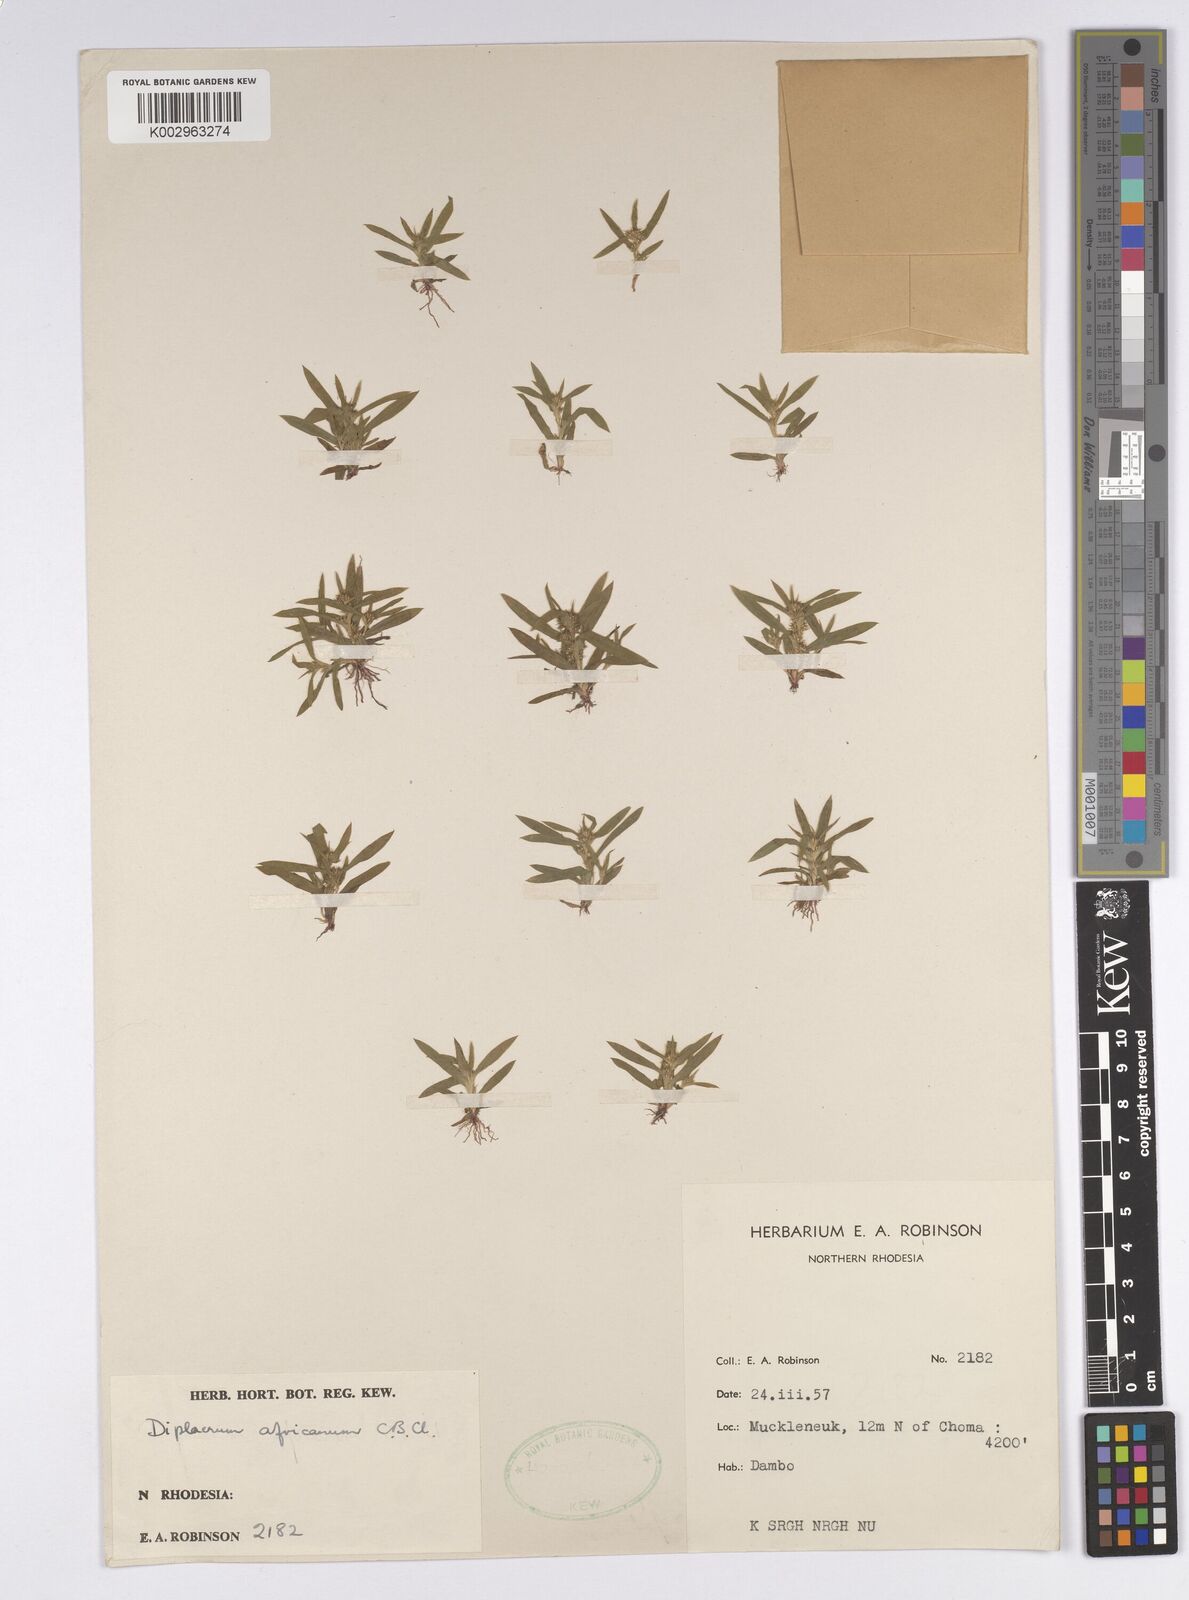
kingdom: Plantae
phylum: Tracheophyta
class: Liliopsida
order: Poales
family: Cyperaceae
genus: Diplacrum
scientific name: Diplacrum africanum
